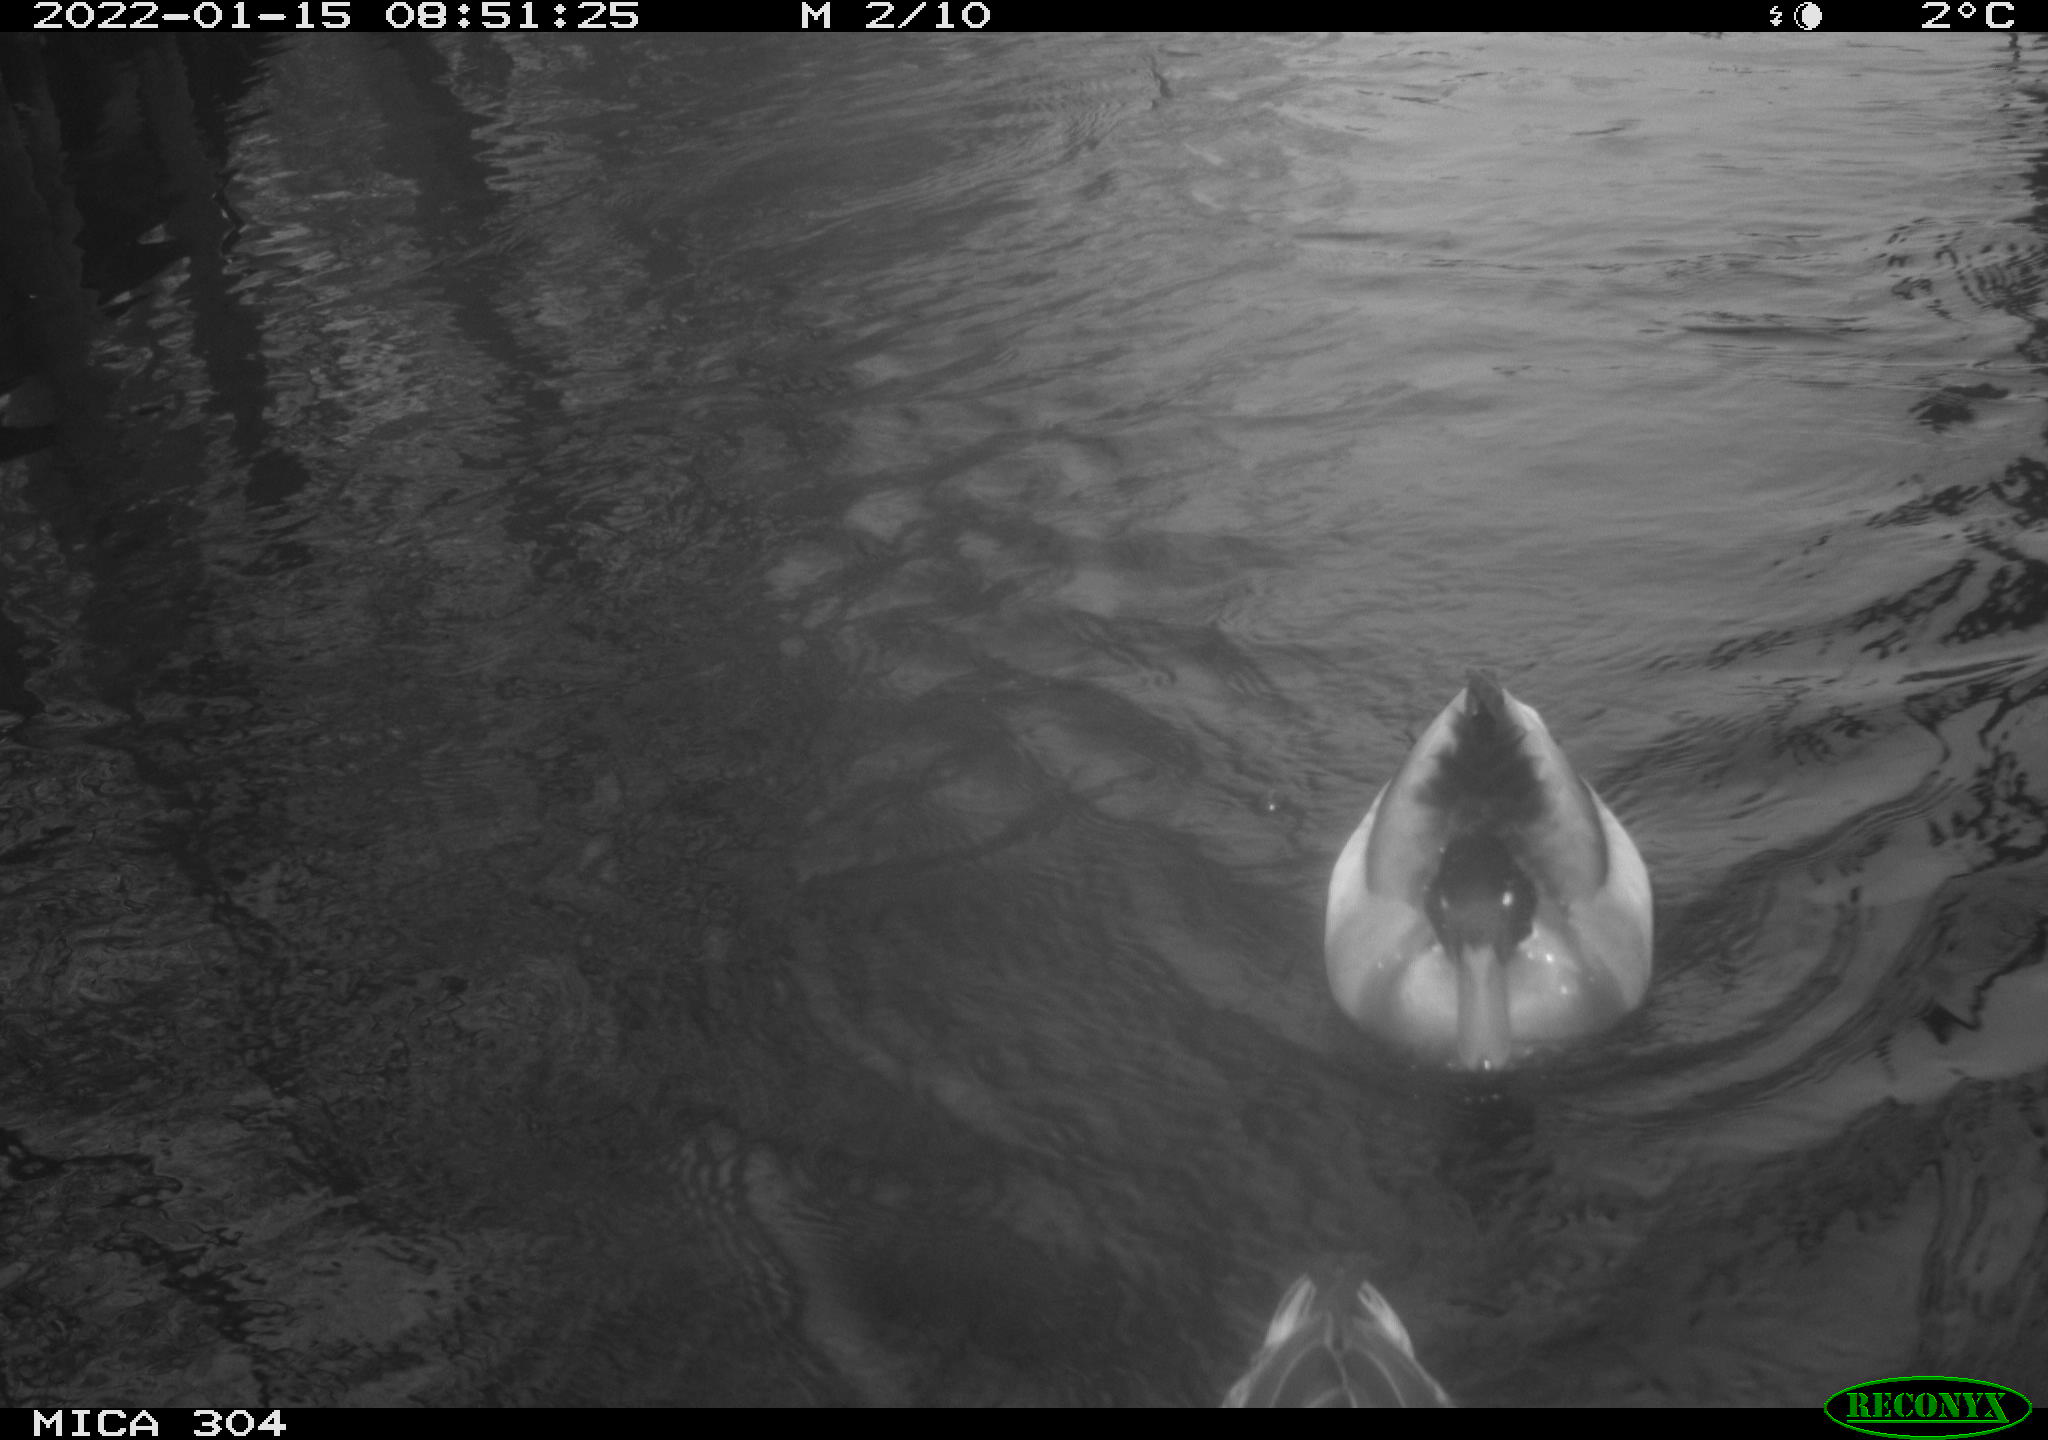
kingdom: Animalia
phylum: Chordata
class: Aves
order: Anseriformes
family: Anatidae
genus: Anas
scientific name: Anas
